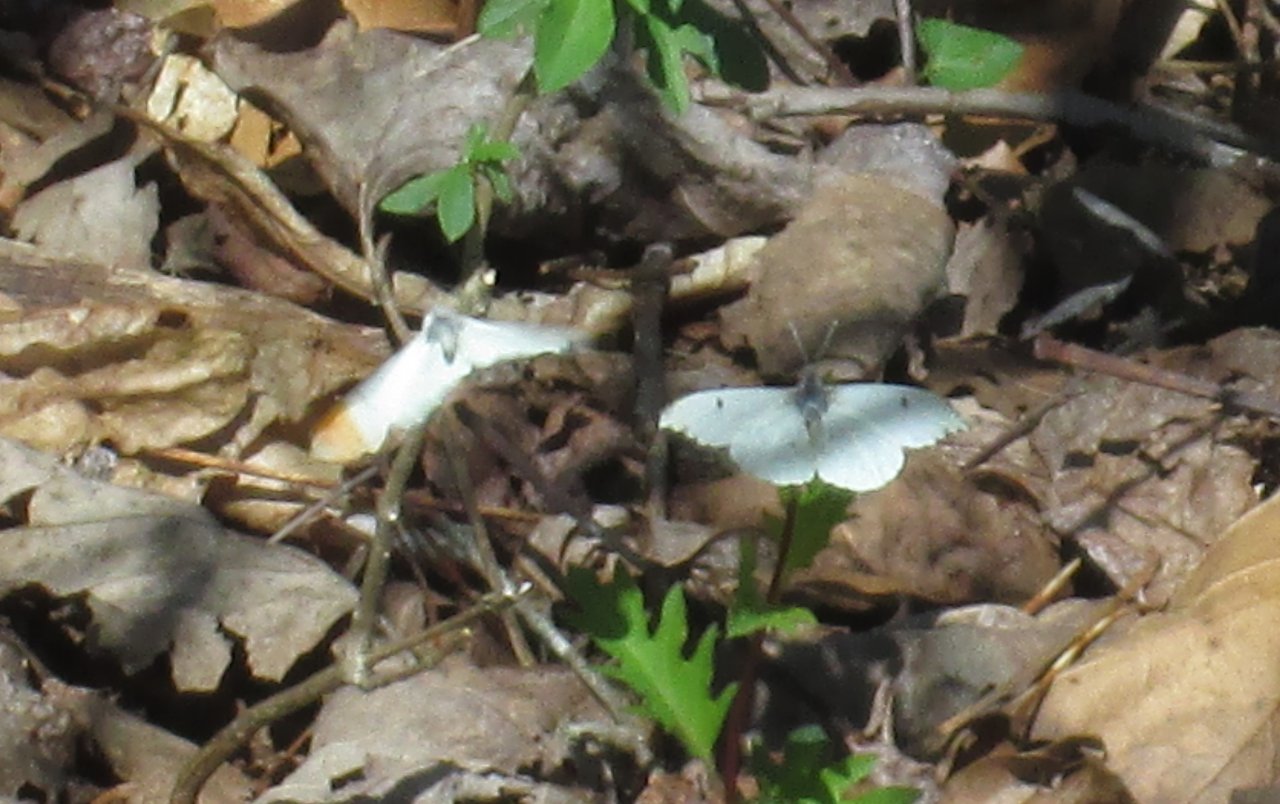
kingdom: Animalia
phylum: Arthropoda
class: Insecta
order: Lepidoptera
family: Pieridae
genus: Anthocharis
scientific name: Anthocharis midea
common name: Falcate Orangetip
